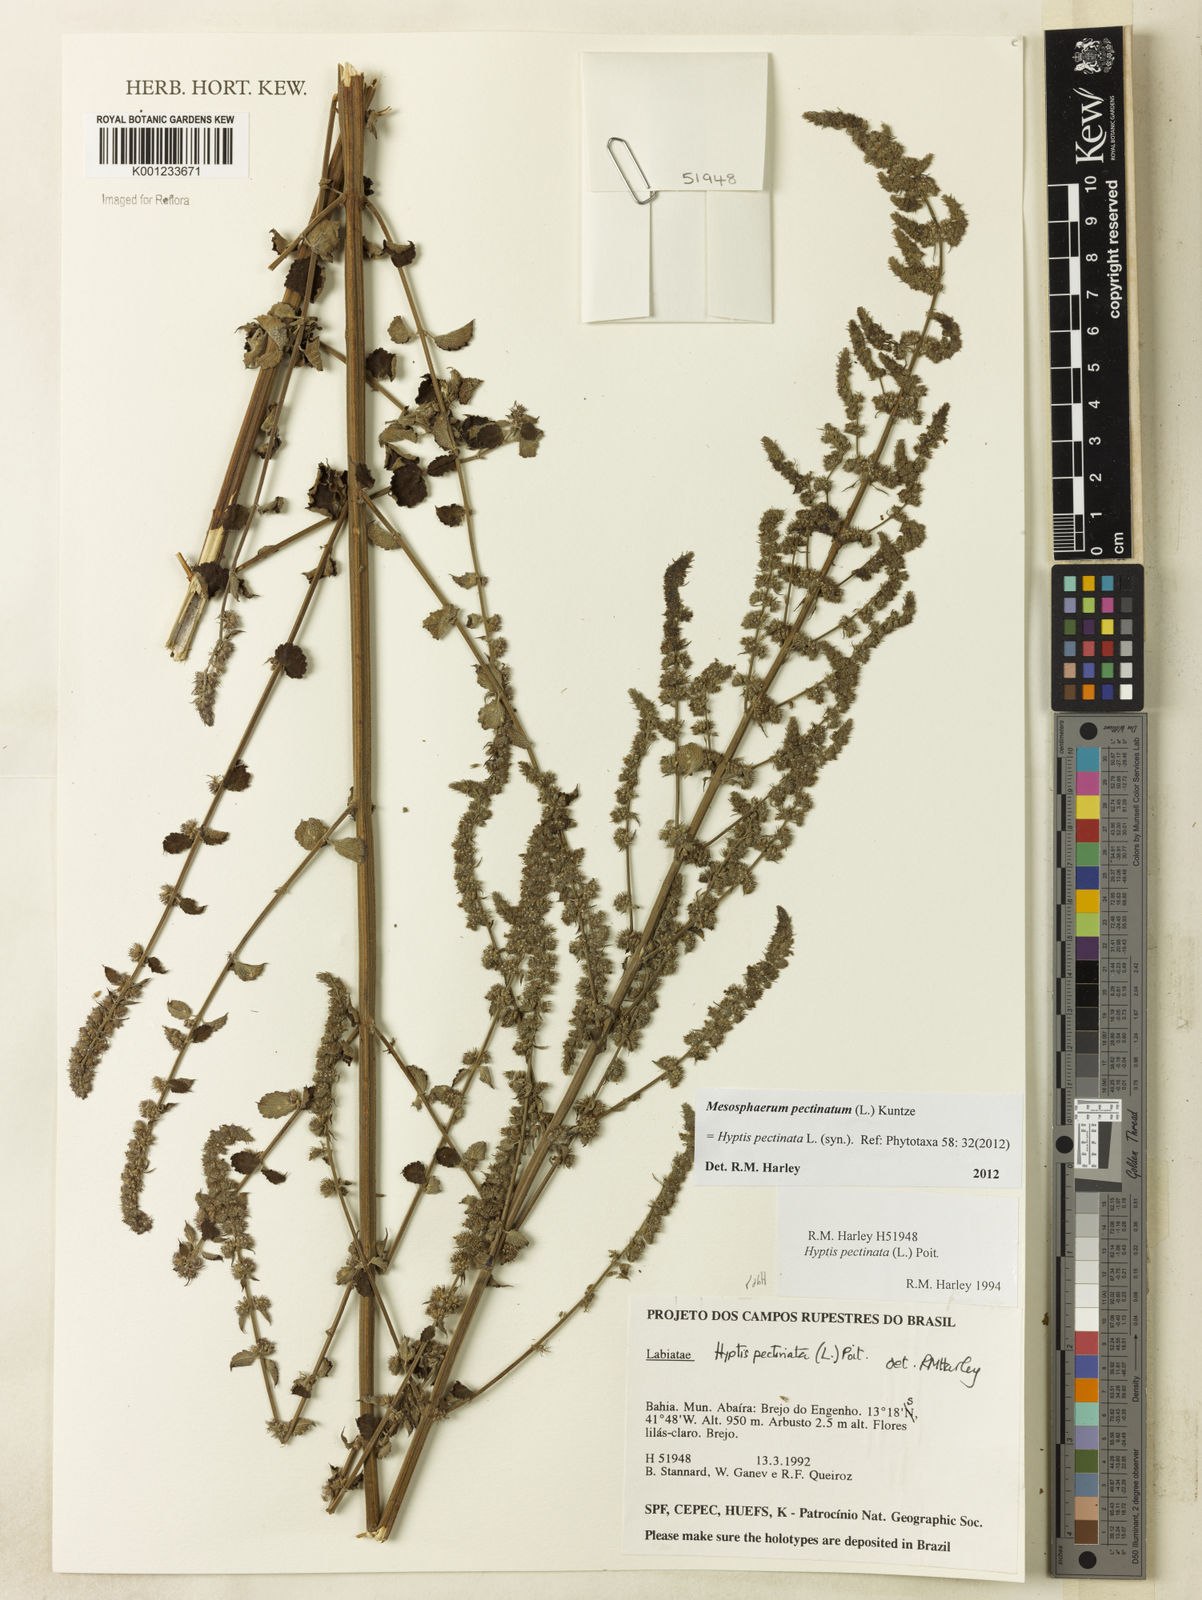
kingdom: Plantae
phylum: Tracheophyta
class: Magnoliopsida
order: Lamiales
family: Lamiaceae
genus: Mesosphaerum
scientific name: Mesosphaerum pectinatum
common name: Comb hyptis
